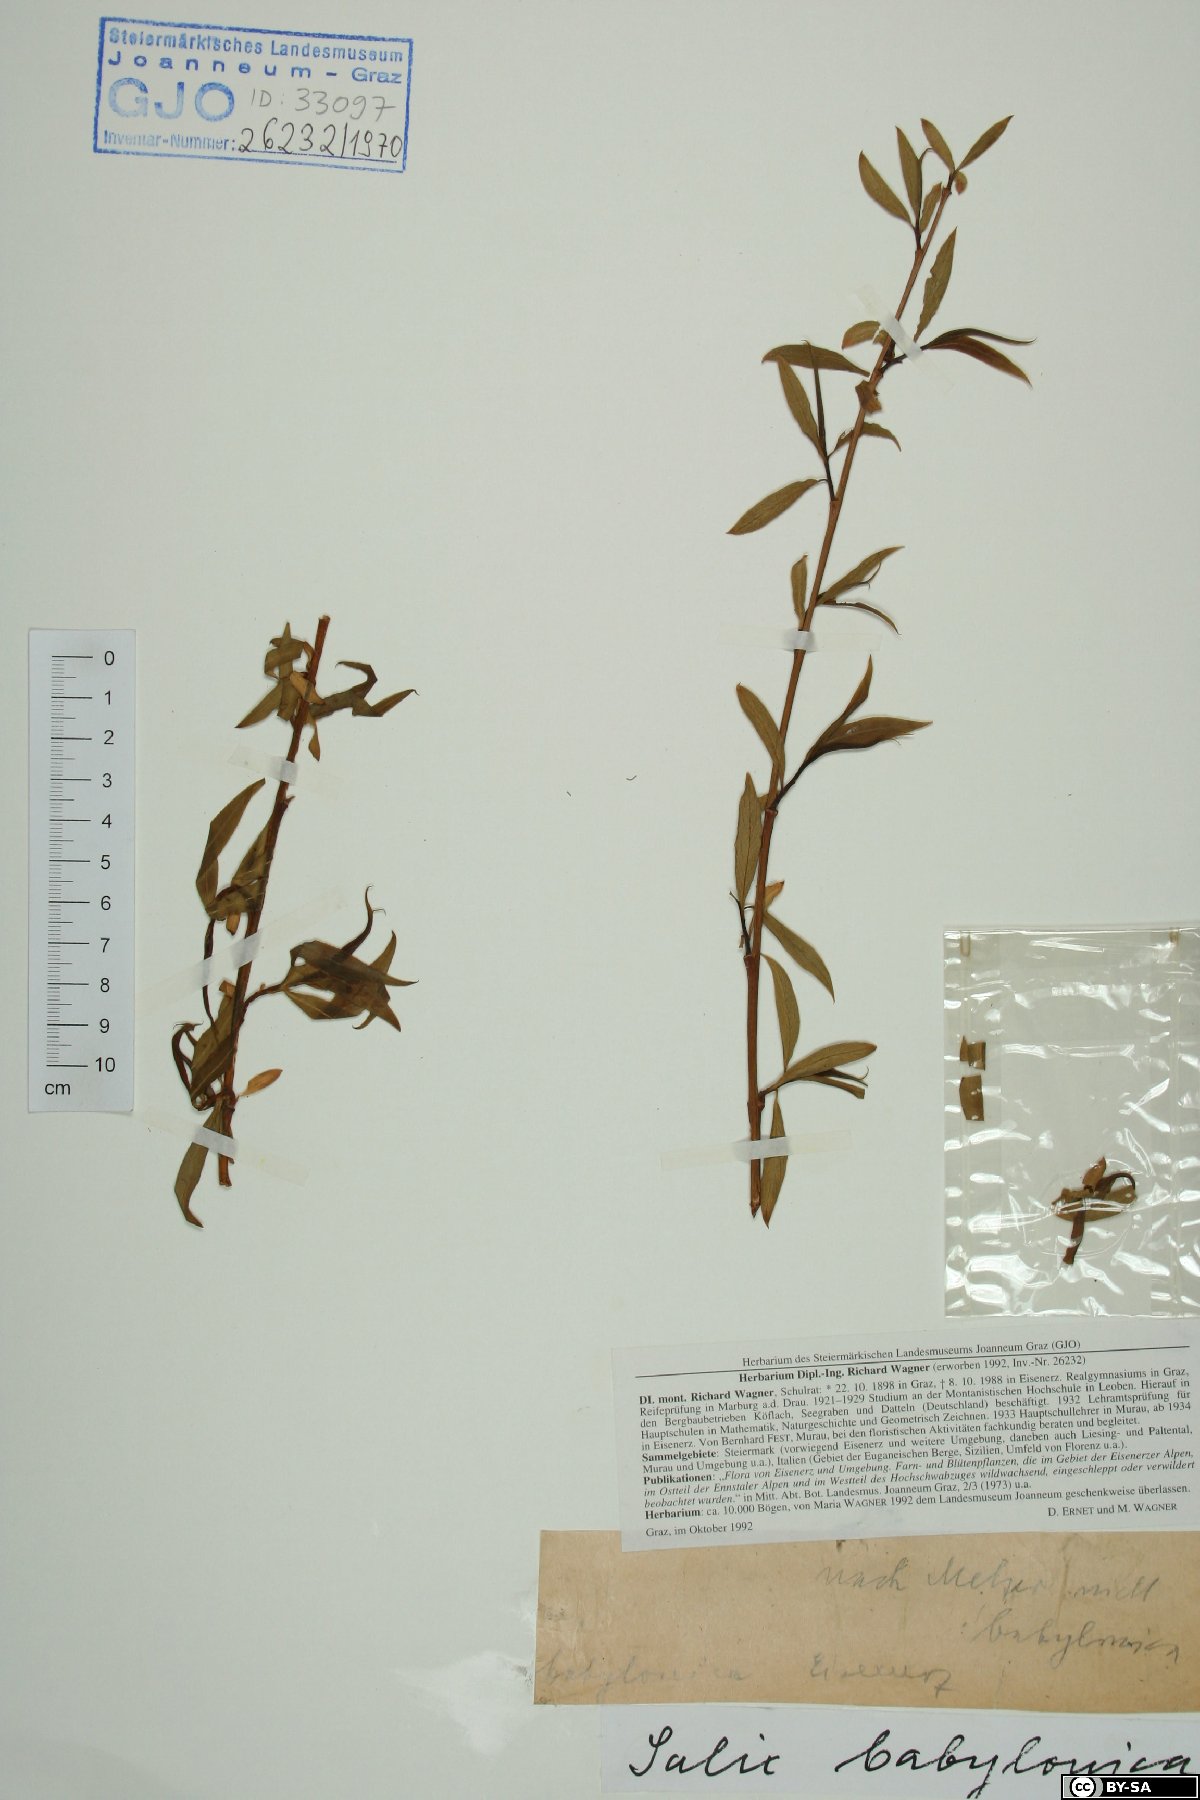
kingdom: Plantae
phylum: Tracheophyta
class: Magnoliopsida
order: Malpighiales
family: Salicaceae
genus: Salix
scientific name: Salix babylonica
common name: Weeping willow
